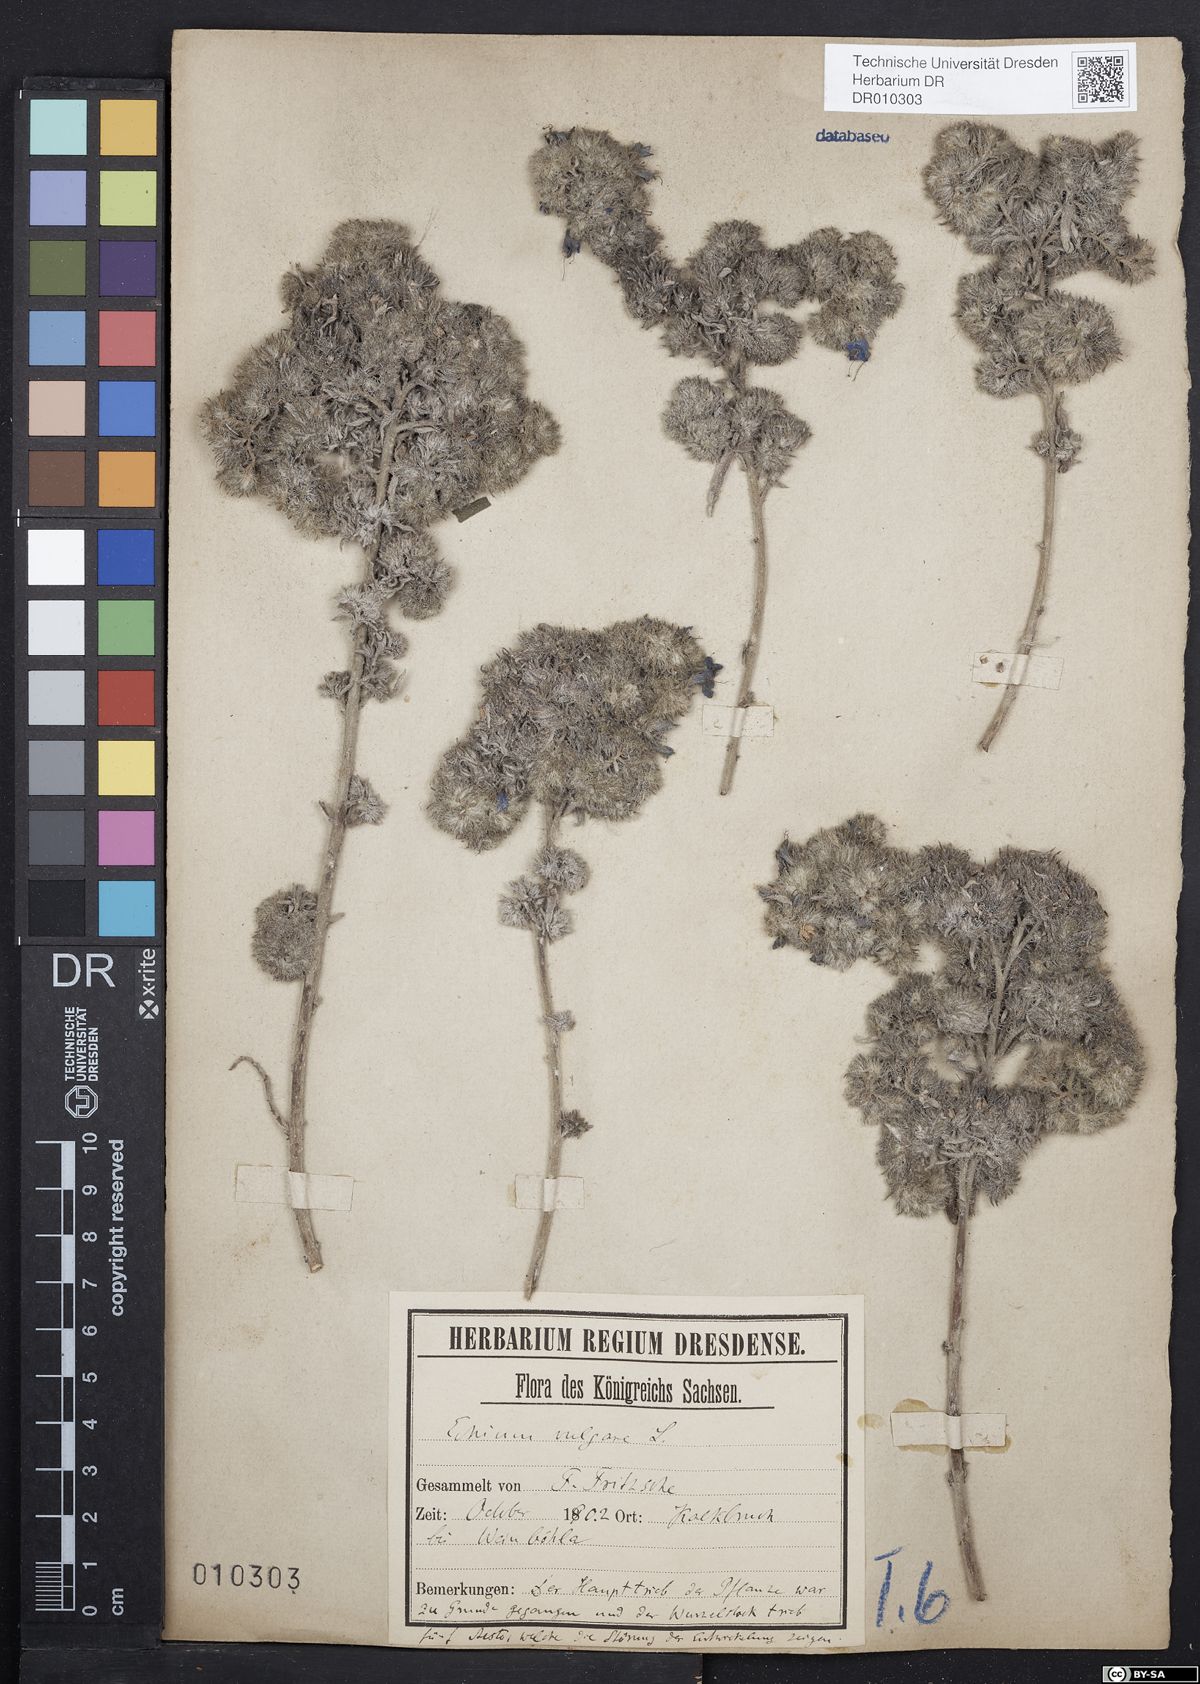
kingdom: Plantae
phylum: Tracheophyta
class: Magnoliopsida
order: Boraginales
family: Boraginaceae
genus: Echium
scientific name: Echium vulgare
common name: Common viper's bugloss
